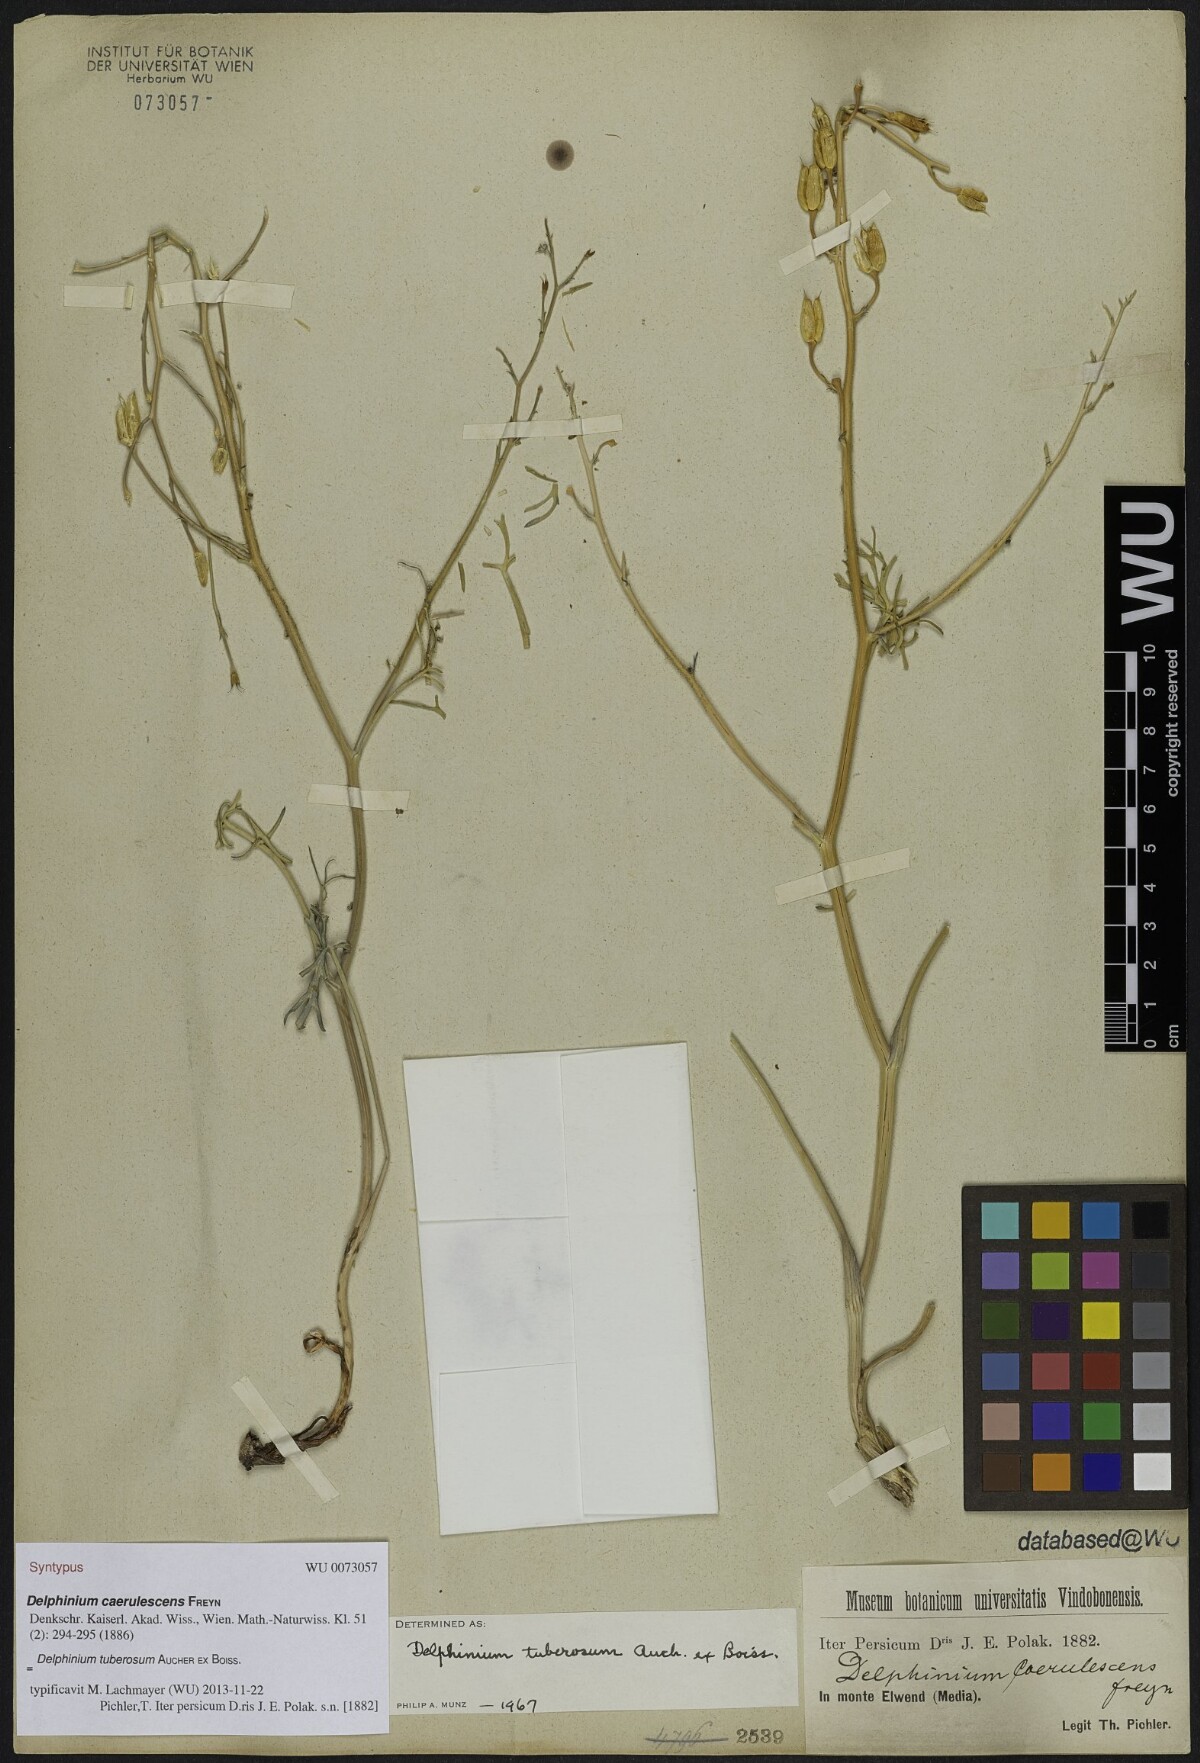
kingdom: Plantae
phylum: Tracheophyta
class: Magnoliopsida
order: Ranunculales
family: Ranunculaceae
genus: Delphinium
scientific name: Delphinium tuberosum
